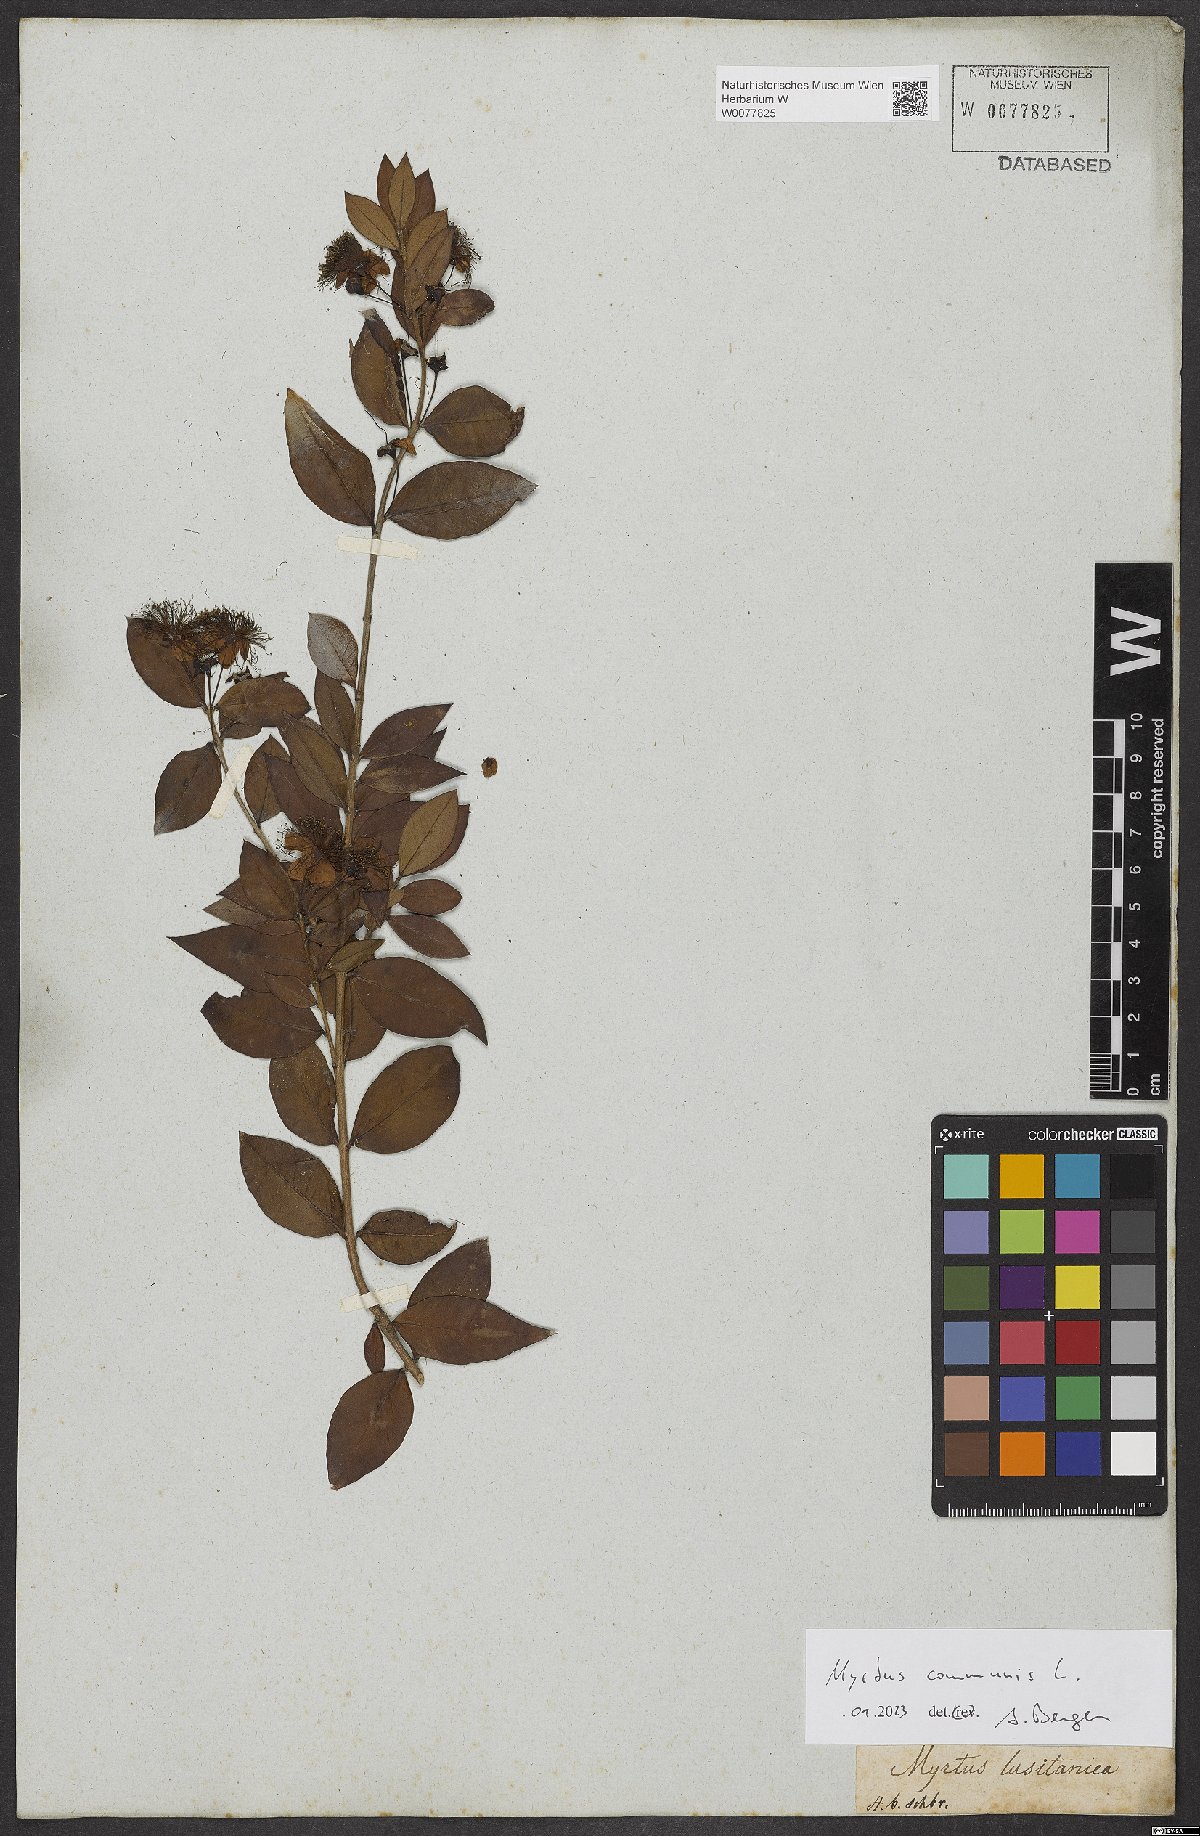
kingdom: Plantae
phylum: Tracheophyta
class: Magnoliopsida
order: Myrtales
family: Myrtaceae
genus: Myrtus
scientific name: Myrtus communis
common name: Myrtle
